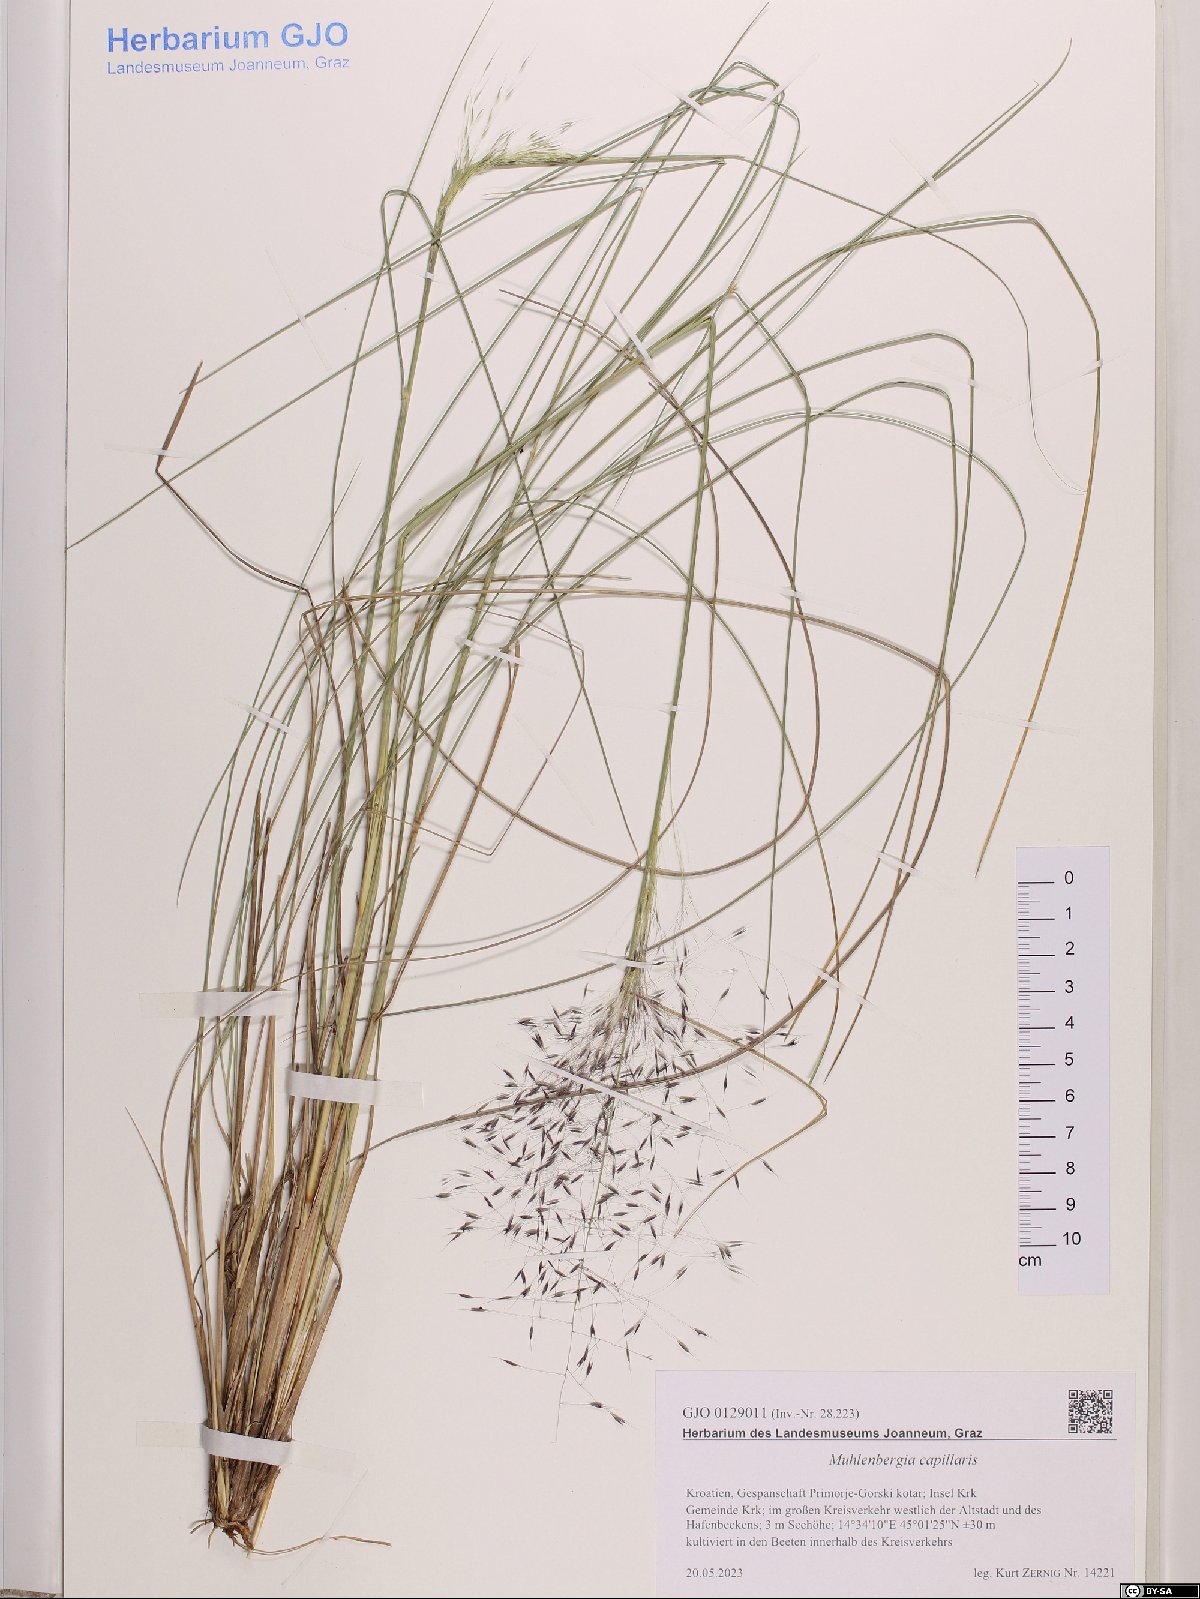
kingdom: Plantae
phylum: Tracheophyta
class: Liliopsida
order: Poales
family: Poaceae
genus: Muhlenbergia
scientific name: Muhlenbergia capillaris
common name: Purple grass
